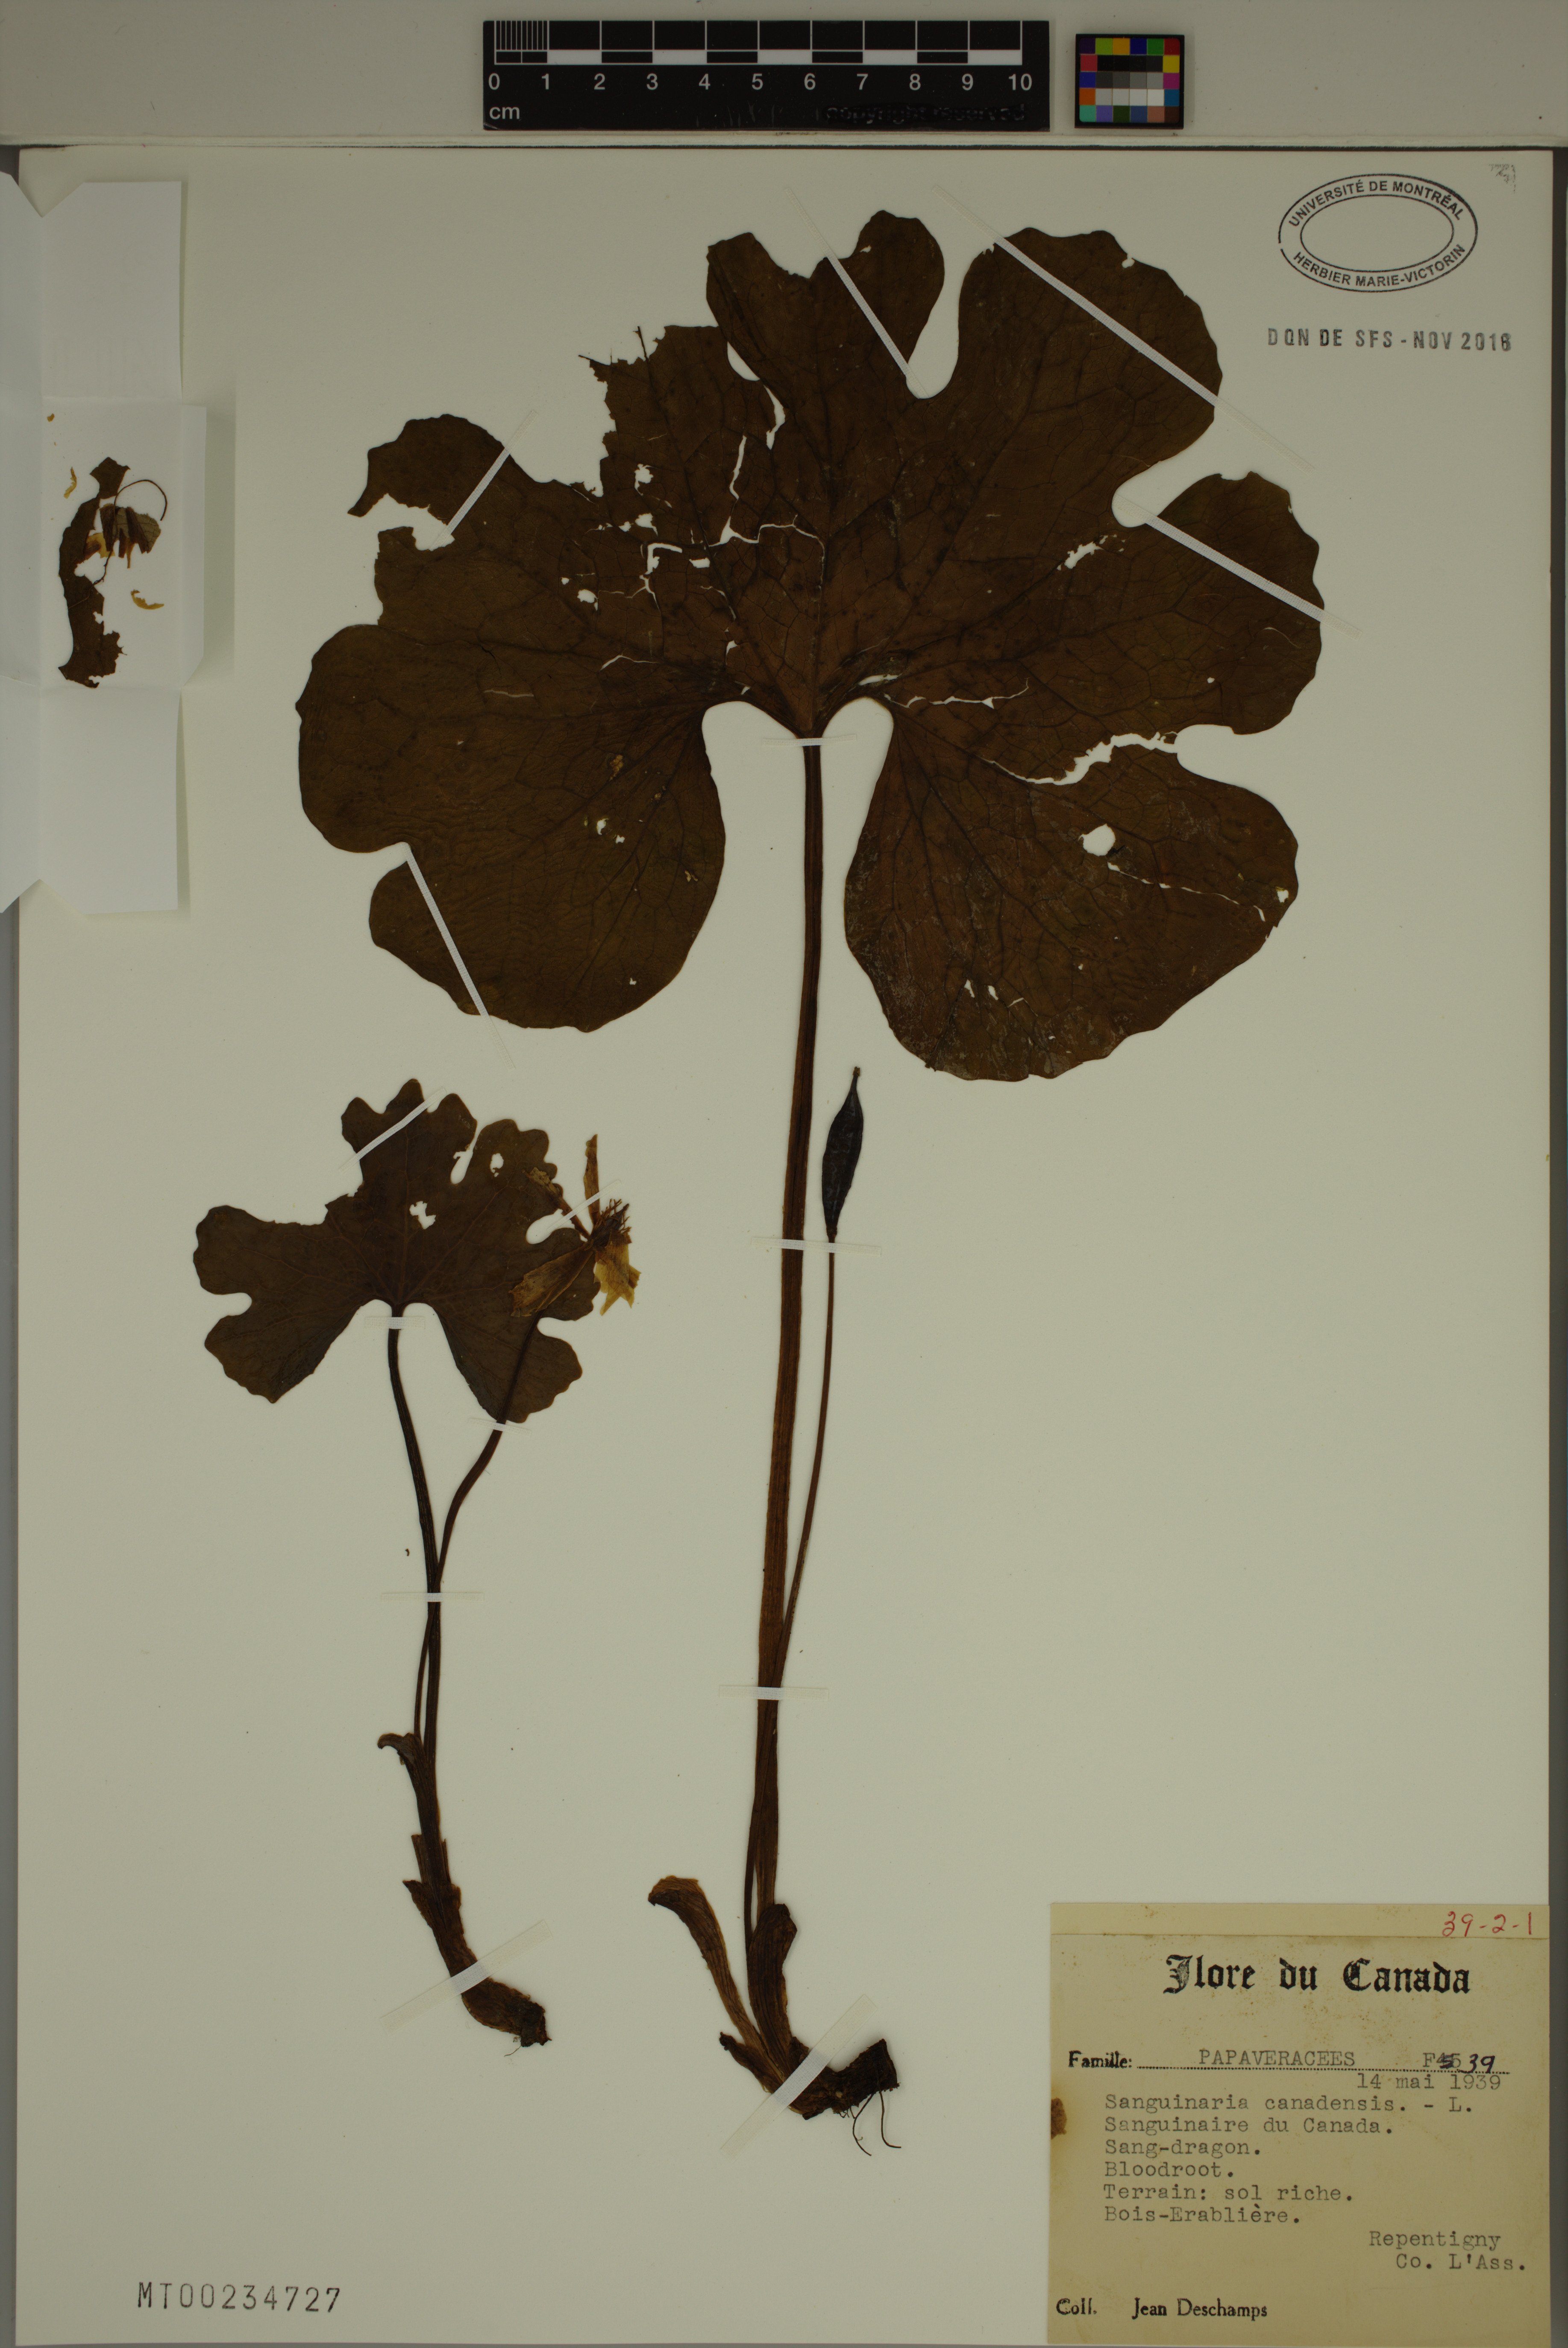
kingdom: Plantae
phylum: Tracheophyta
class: Magnoliopsida
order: Ranunculales
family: Papaveraceae
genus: Sanguinaria
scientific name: Sanguinaria canadensis
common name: Bloodroot
